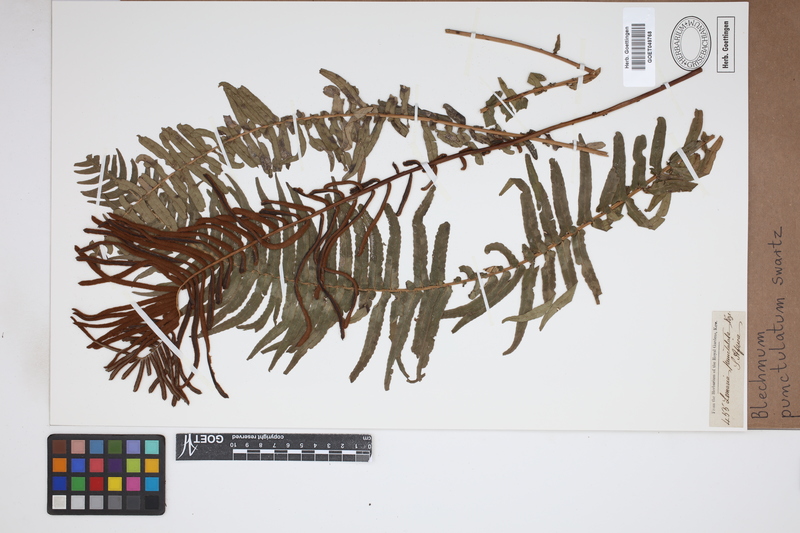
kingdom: Plantae
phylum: Tracheophyta
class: Polypodiopsida
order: Polypodiales
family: Blechnaceae
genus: Blechnum
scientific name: Blechnum punctulatum
